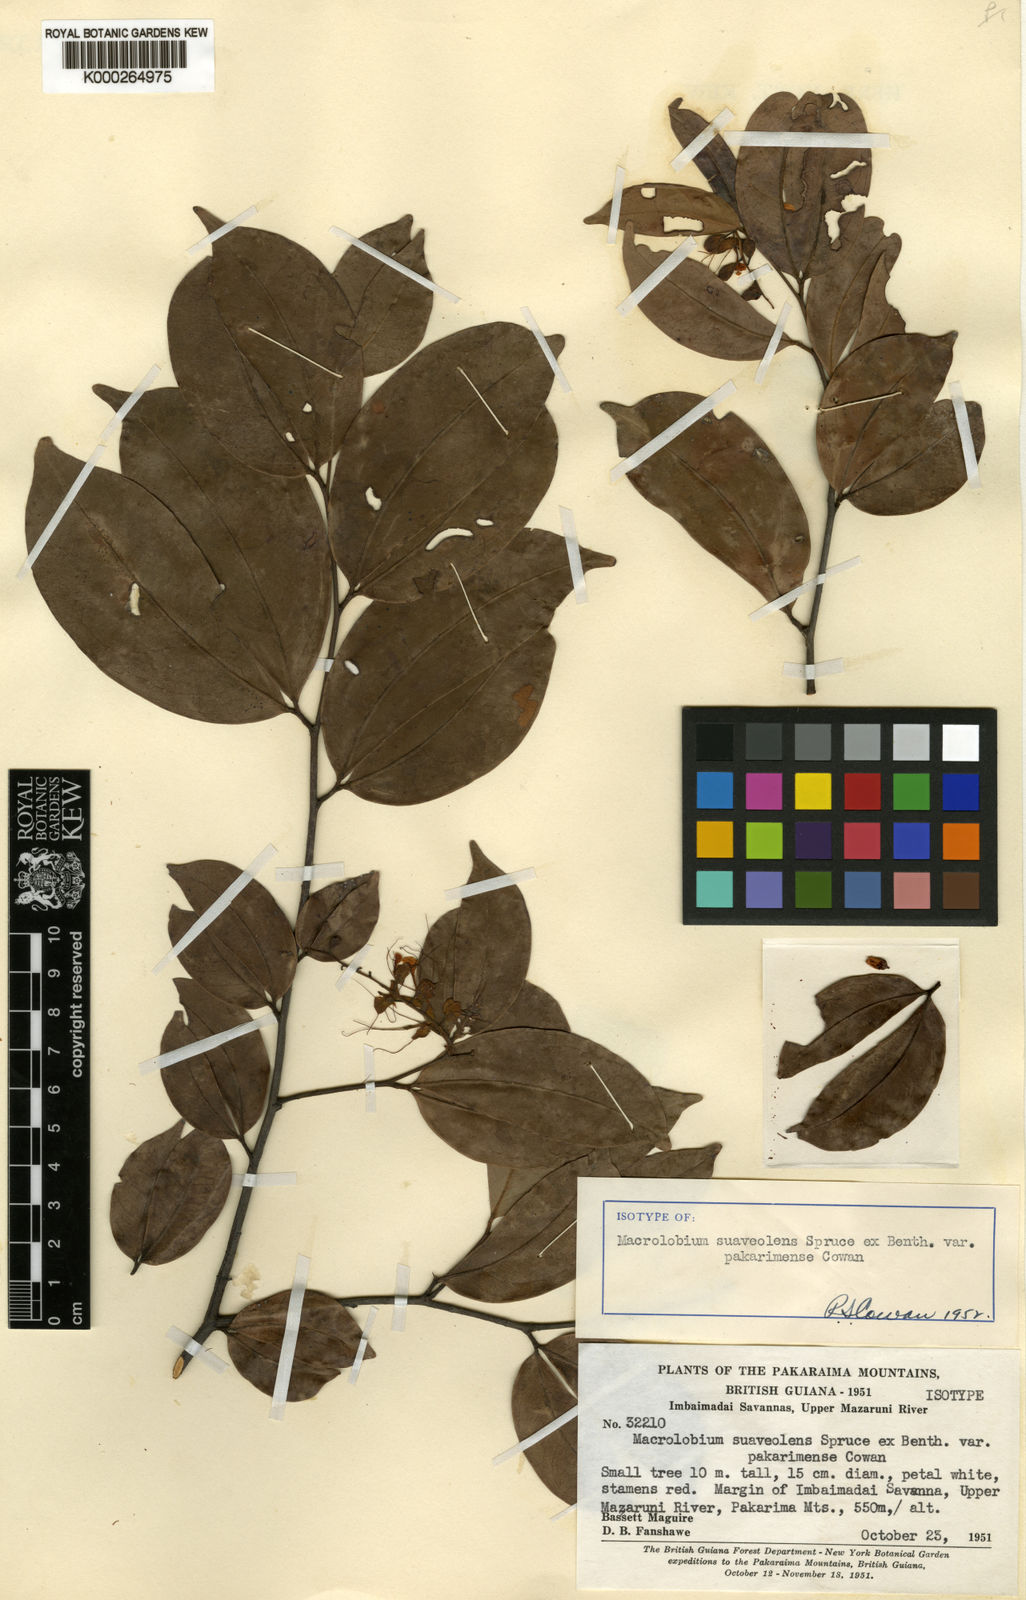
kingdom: Plantae
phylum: Tracheophyta
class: Magnoliopsida
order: Fabales
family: Fabaceae
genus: Macrolobium
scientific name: Macrolobium suaveolens
